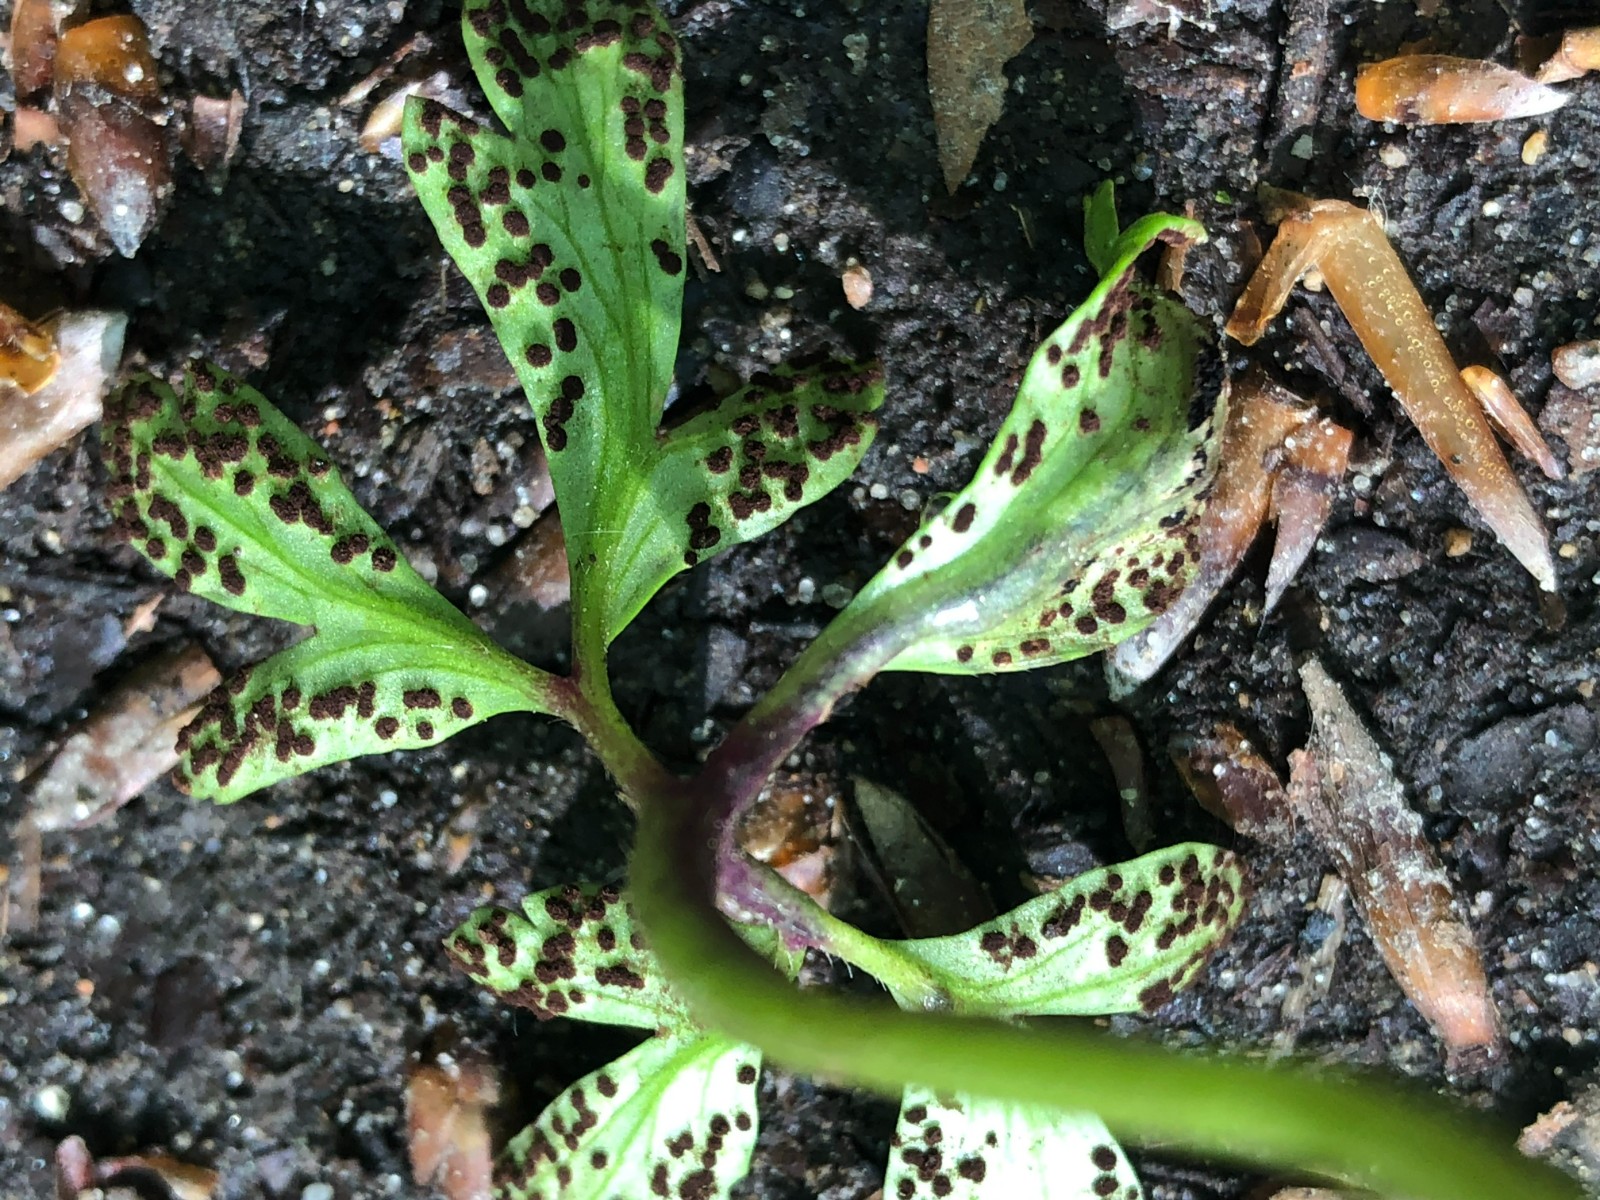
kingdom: Fungi
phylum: Basidiomycota
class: Pucciniomycetes
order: Pucciniales
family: Tranzscheliaceae
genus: Tranzschelia
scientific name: Tranzschelia anemones
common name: anemone-knæksporerust
